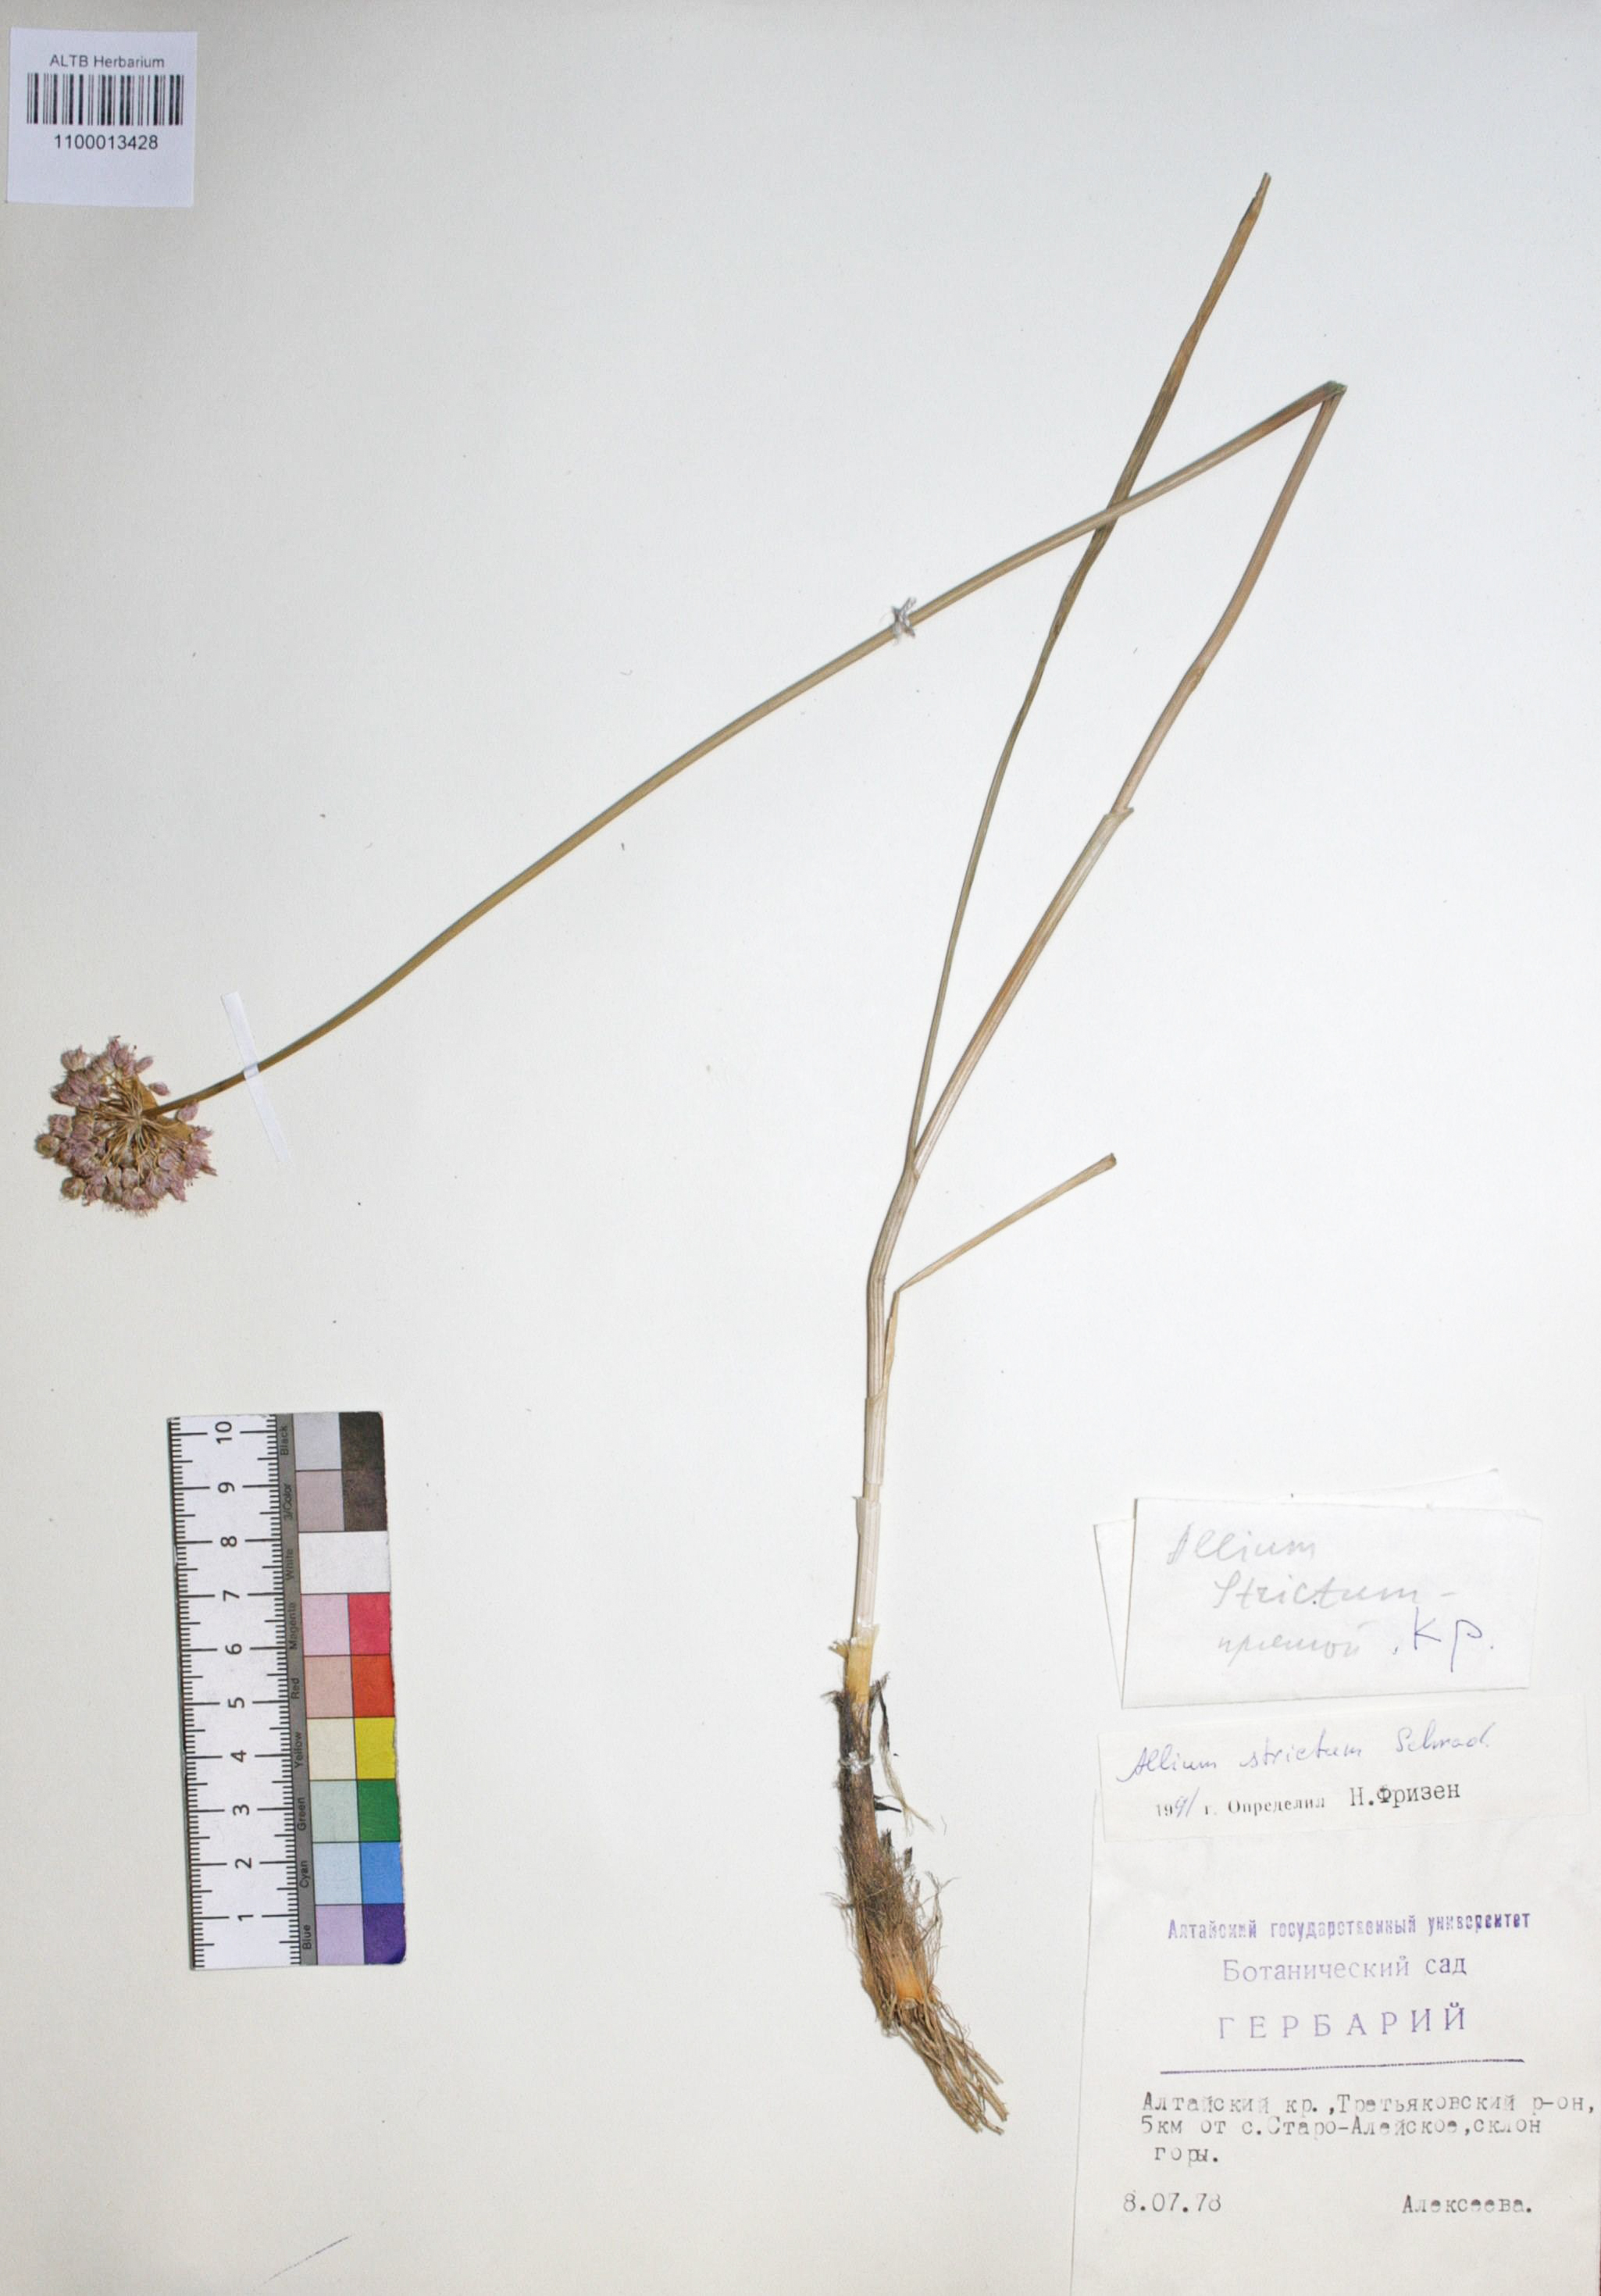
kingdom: Plantae
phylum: Tracheophyta
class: Liliopsida
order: Asparagales
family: Amaryllidaceae
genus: Allium
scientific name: Allium strictum
